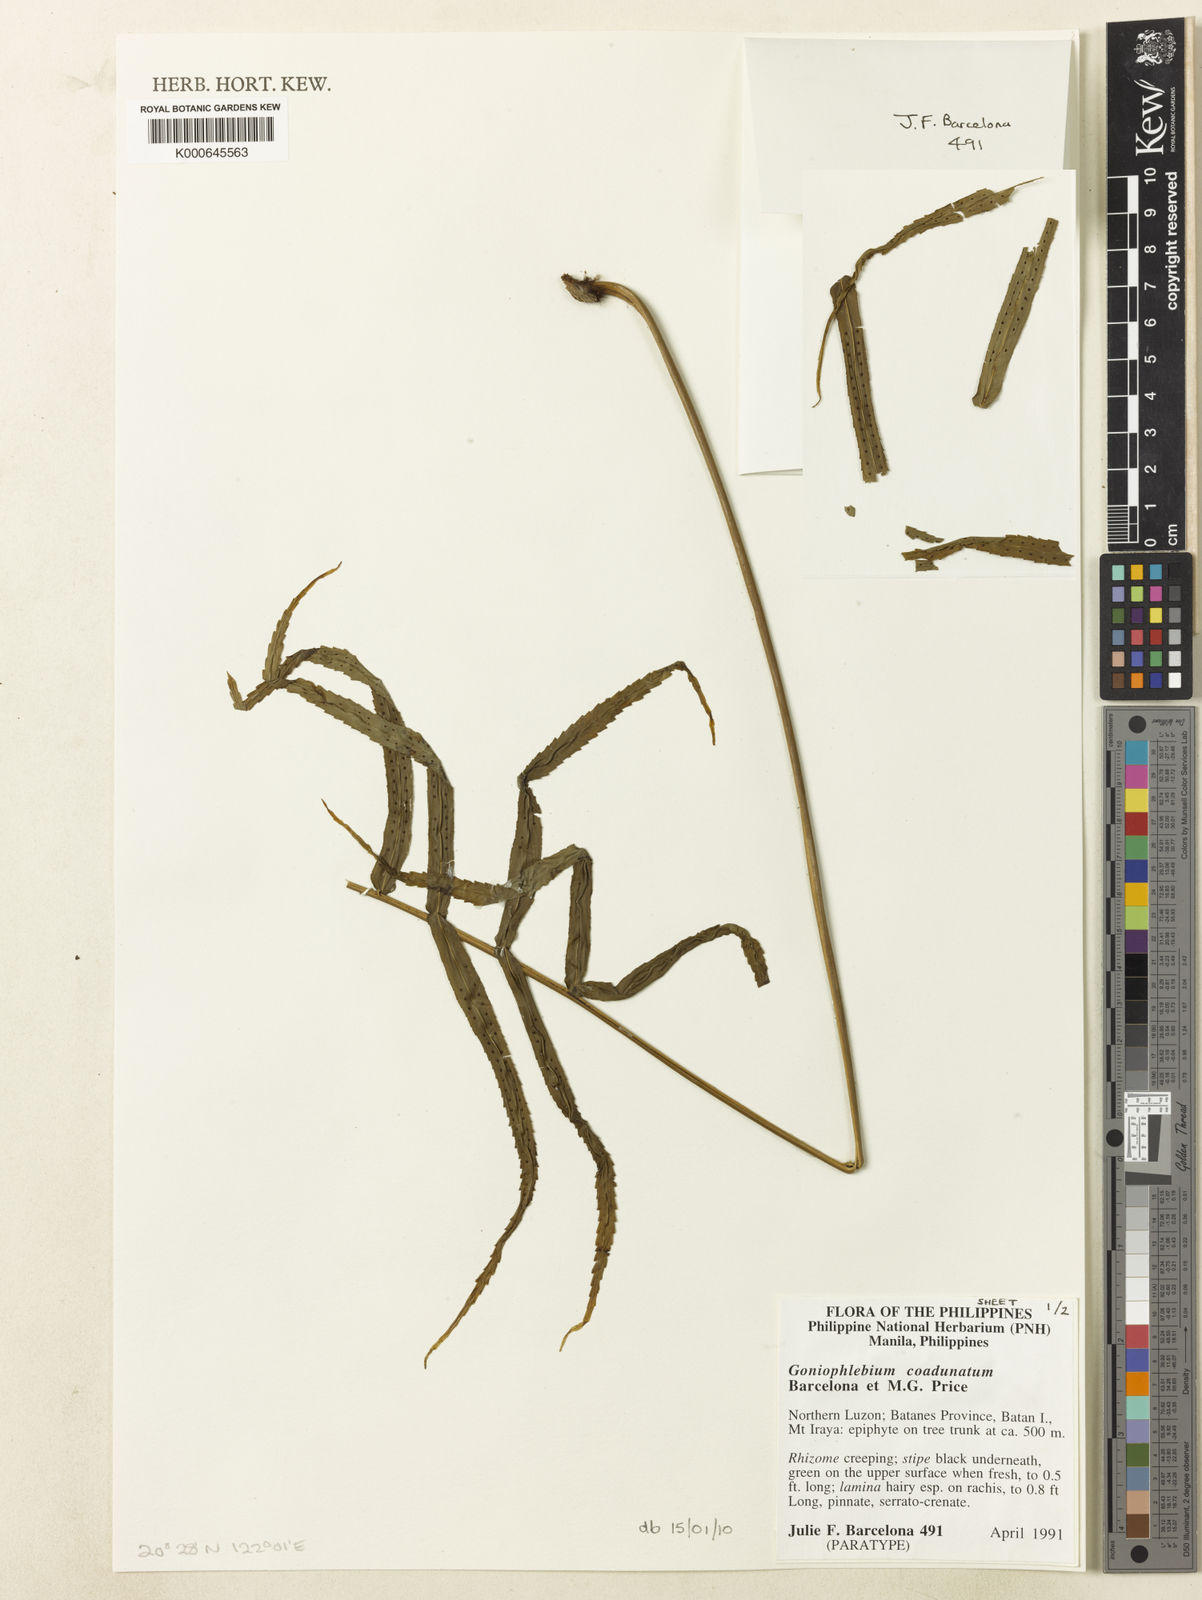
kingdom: Plantae
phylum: Tracheophyta
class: Polypodiopsida
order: Polypodiales
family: Polypodiaceae
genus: Polypodium
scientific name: Polypodium
